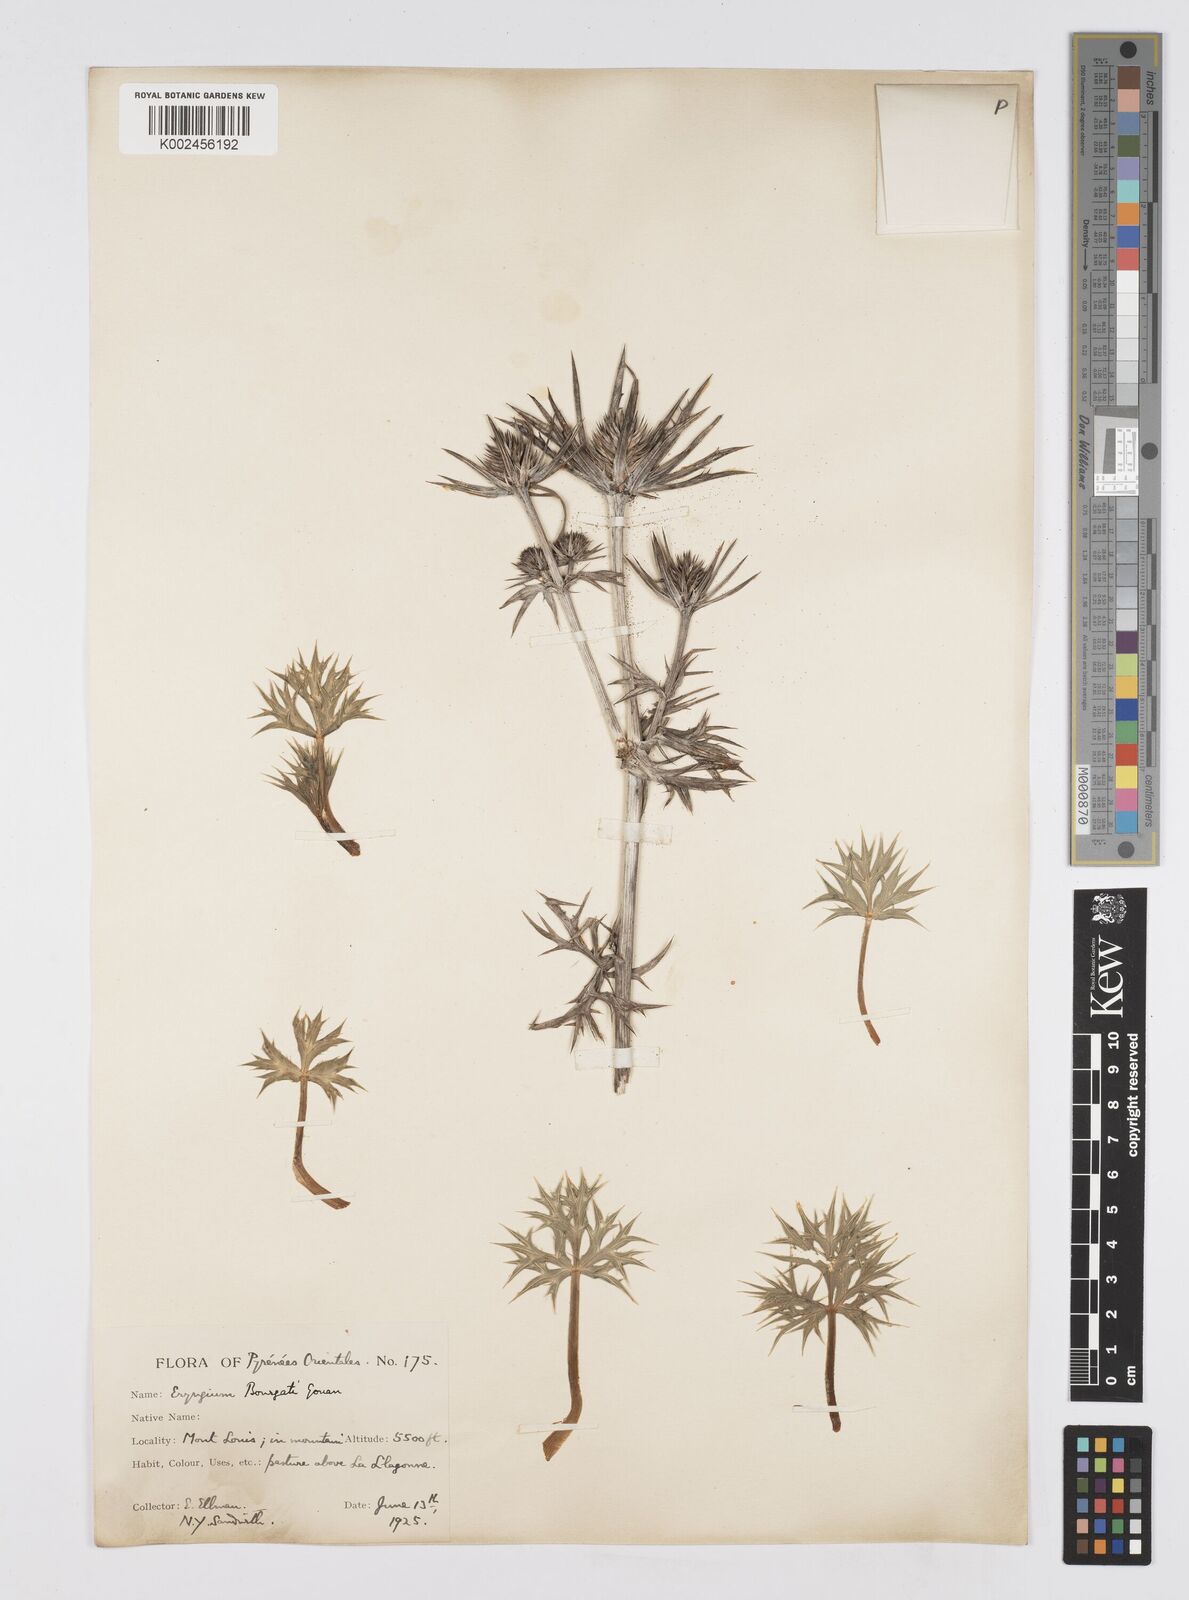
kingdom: Plantae
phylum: Tracheophyta
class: Magnoliopsida
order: Apiales
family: Apiaceae
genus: Eryngium
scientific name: Eryngium bourgatii
